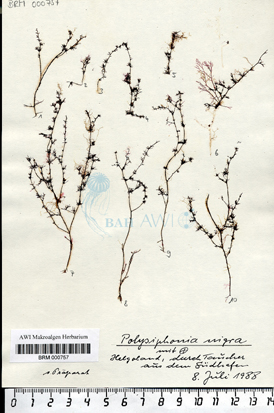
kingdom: Plantae
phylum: Rhodophyta
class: Florideophyceae
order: Ceramiales
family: Rhodomelaceae
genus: Vertebrata
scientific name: Vertebrata nigra
